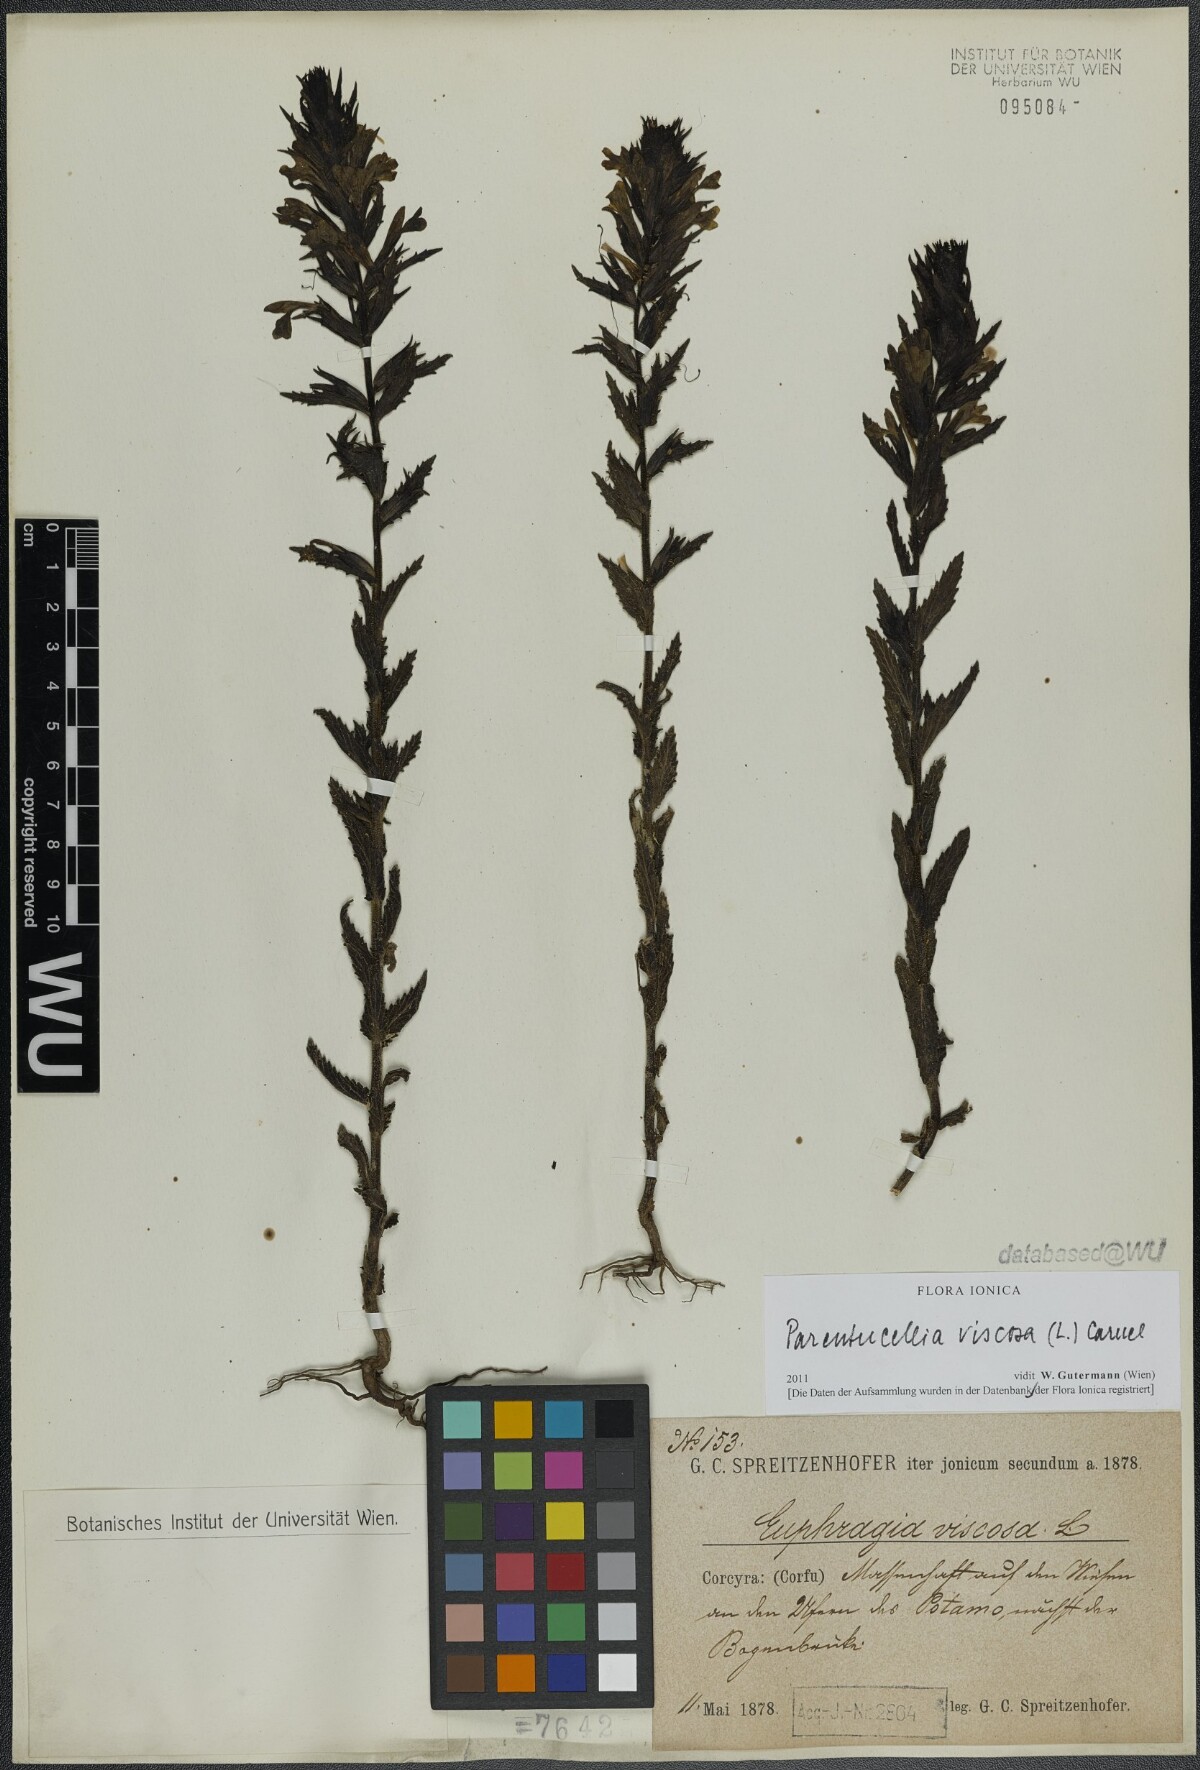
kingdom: Plantae
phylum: Tracheophyta
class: Magnoliopsida
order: Lamiales
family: Orobanchaceae
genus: Bellardia
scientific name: Bellardia viscosa
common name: Sticky parentucellia
